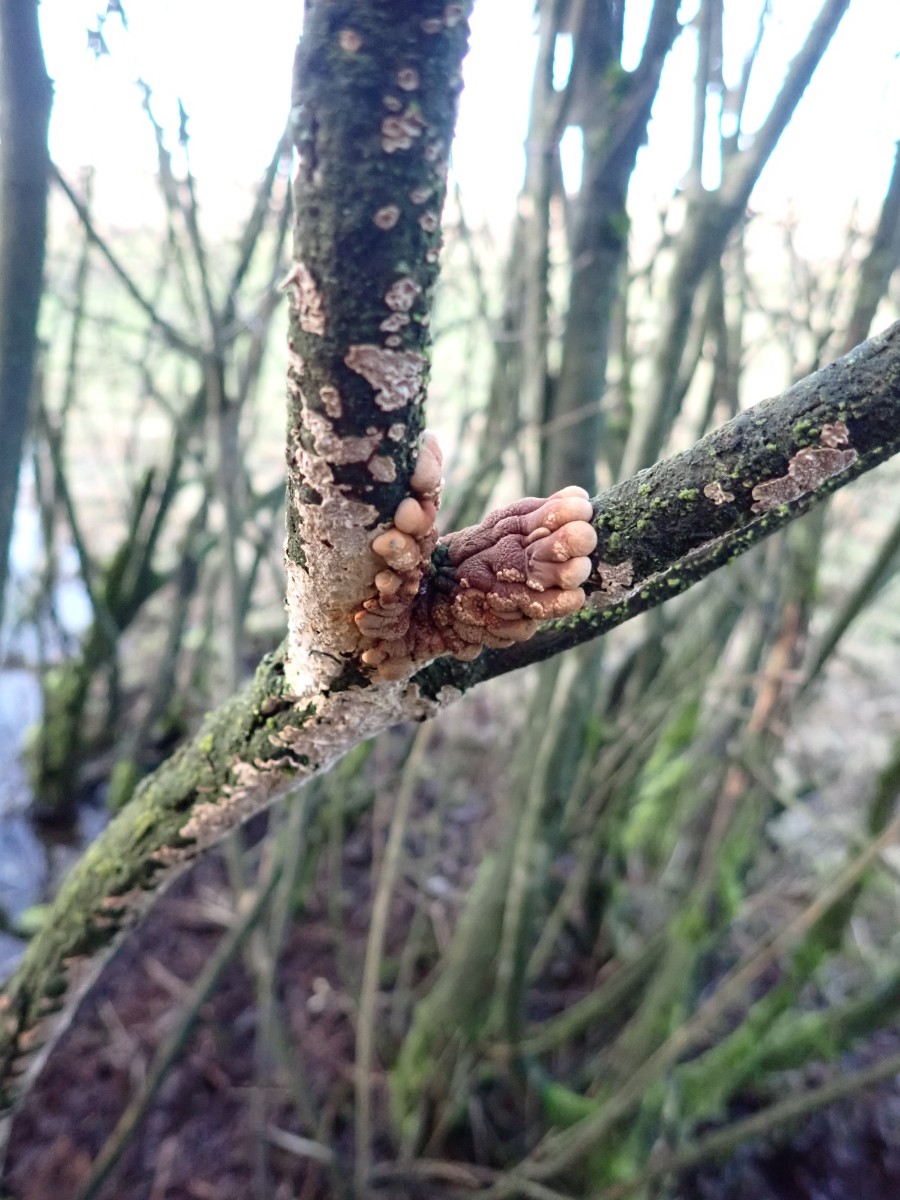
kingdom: Fungi
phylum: Ascomycota
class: Sordariomycetes
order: Hypocreales
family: Hypocreaceae
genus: Hypocreopsis
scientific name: Hypocreopsis lichenoides
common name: pilfinger
